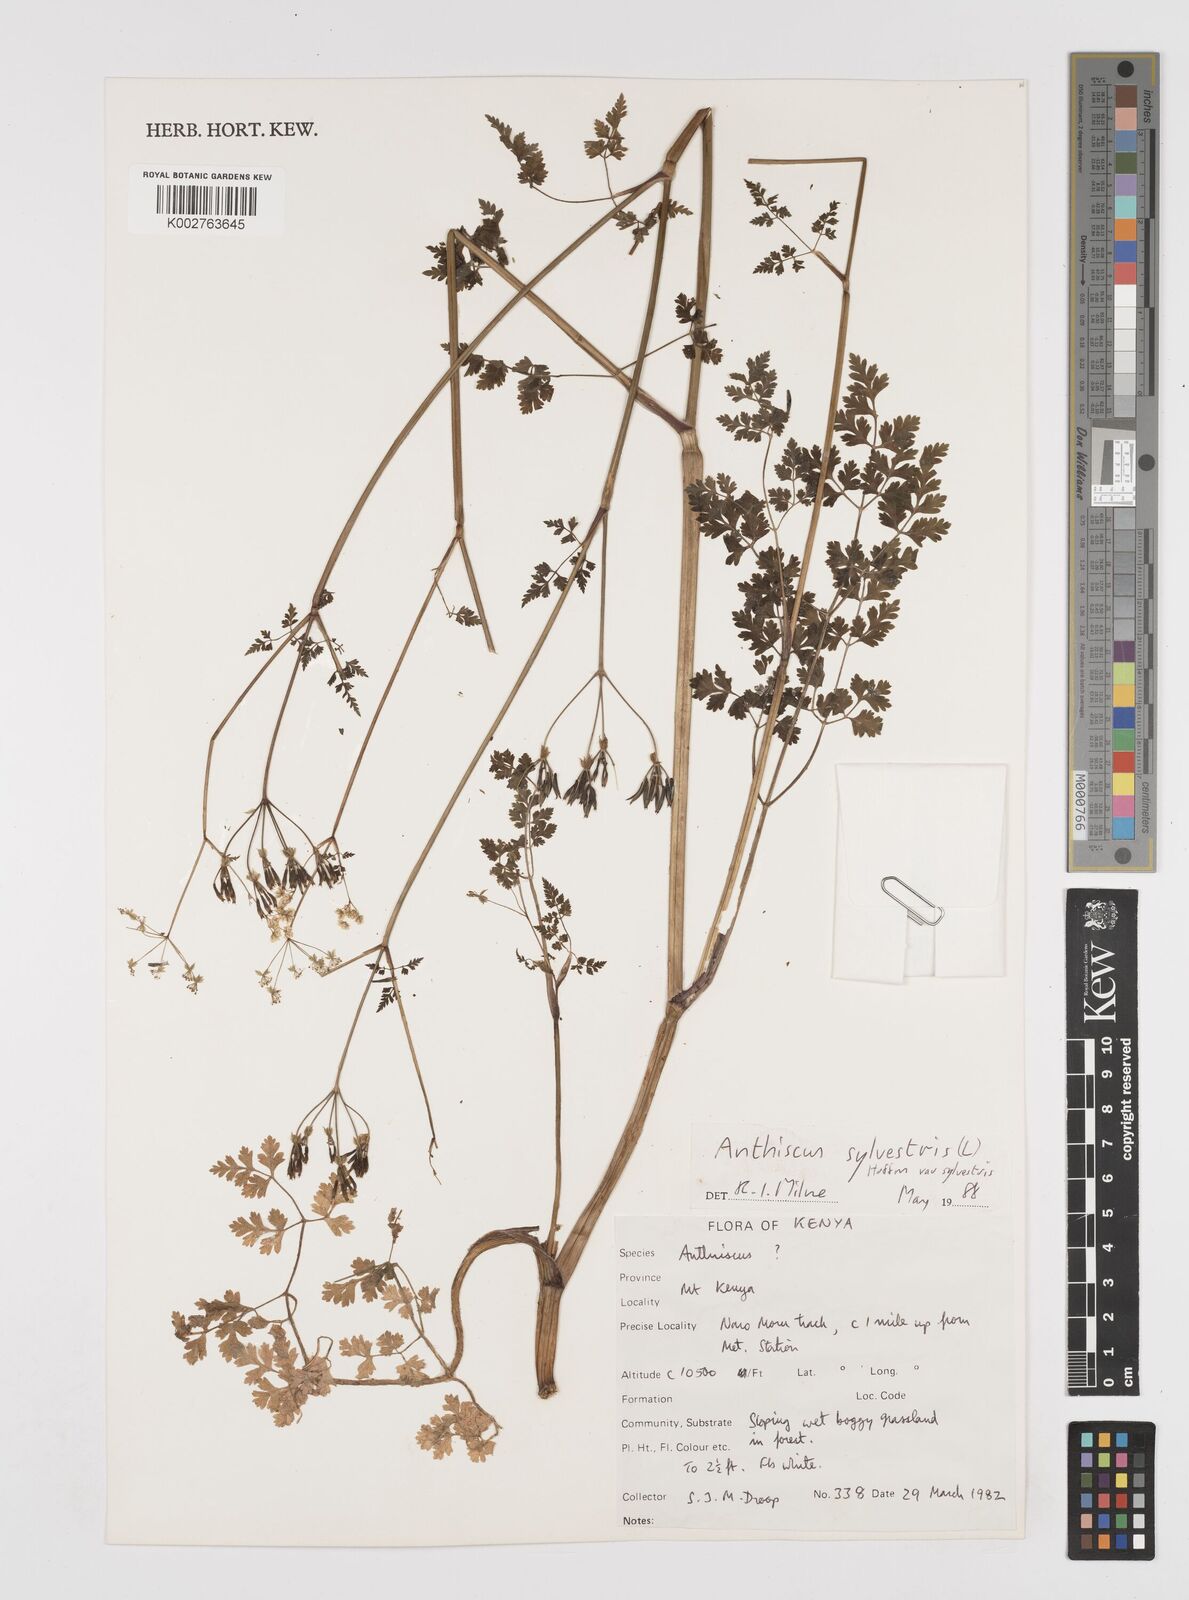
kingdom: Plantae
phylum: Tracheophyta
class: Magnoliopsida
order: Apiales
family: Apiaceae
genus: Anthriscus
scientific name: Anthriscus sylvestris
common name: Cow parsley
